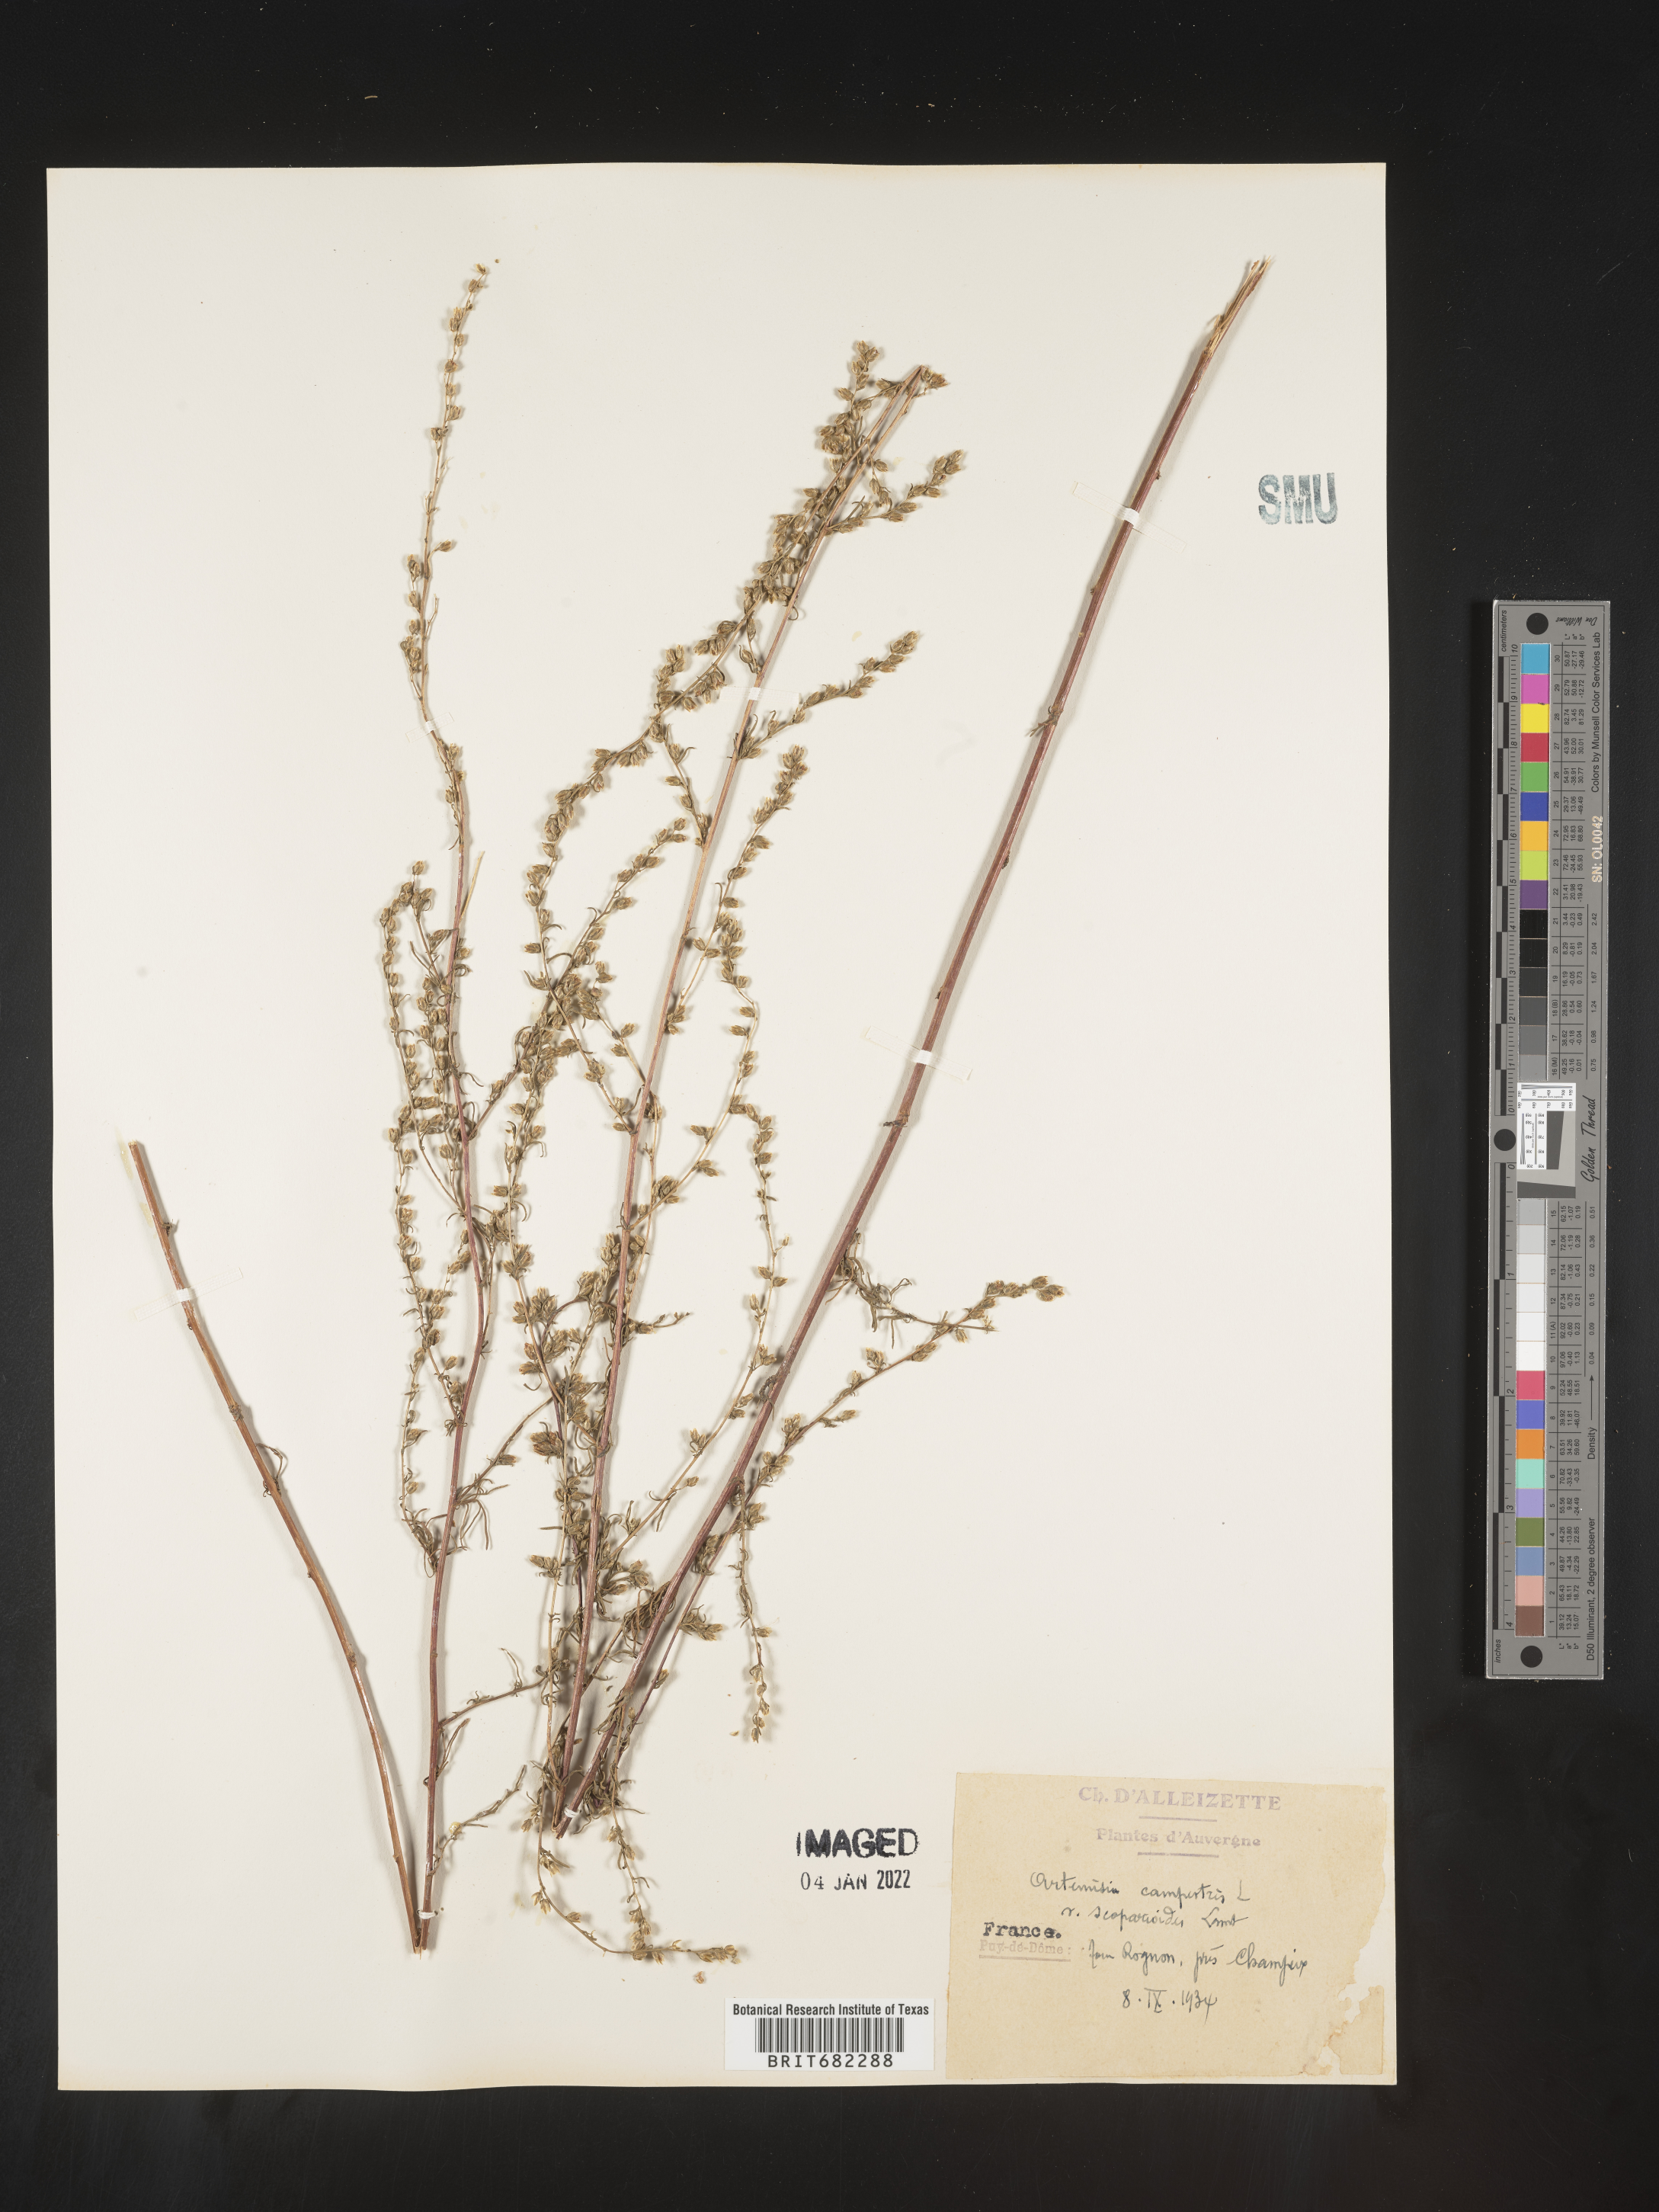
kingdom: Plantae
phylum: Tracheophyta
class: Magnoliopsida
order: Asterales
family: Asteraceae
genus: Artemisia
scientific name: Artemisia campestris
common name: Field wormwood
